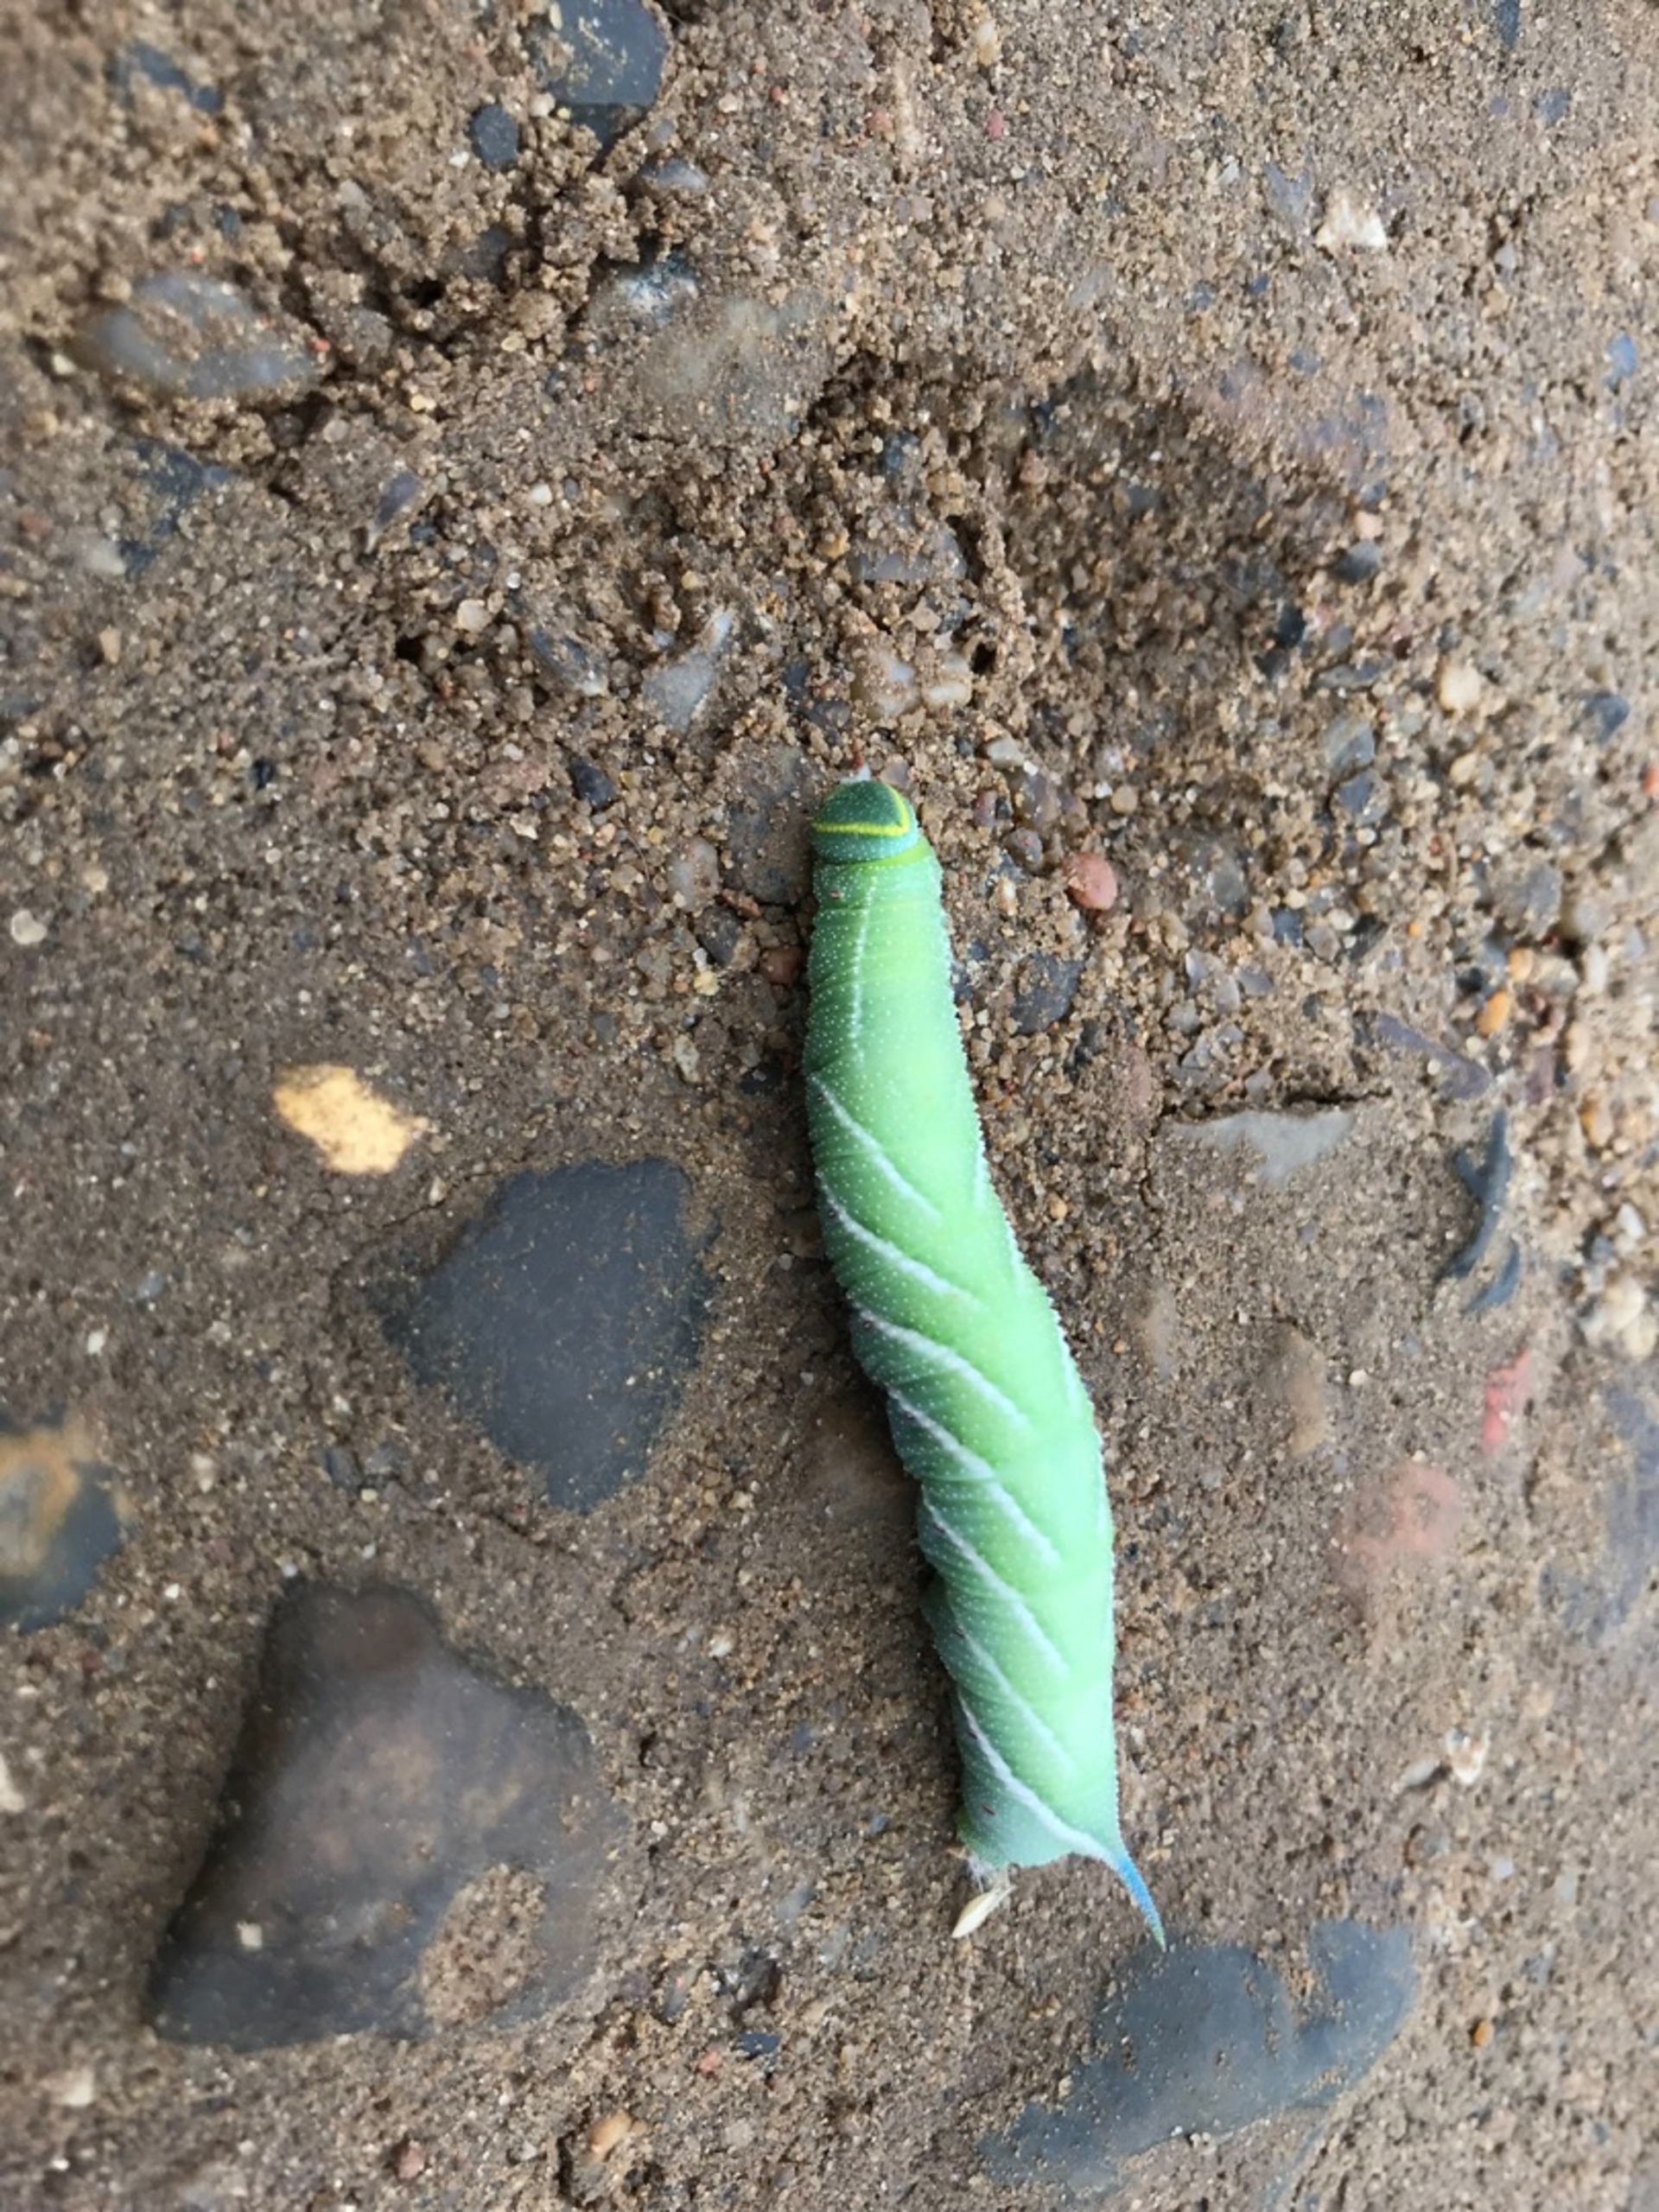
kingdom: Animalia
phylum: Arthropoda
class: Insecta
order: Lepidoptera
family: Sphingidae
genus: Smerinthus
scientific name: Smerinthus ocellata
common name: Aftenpåfugleøje
